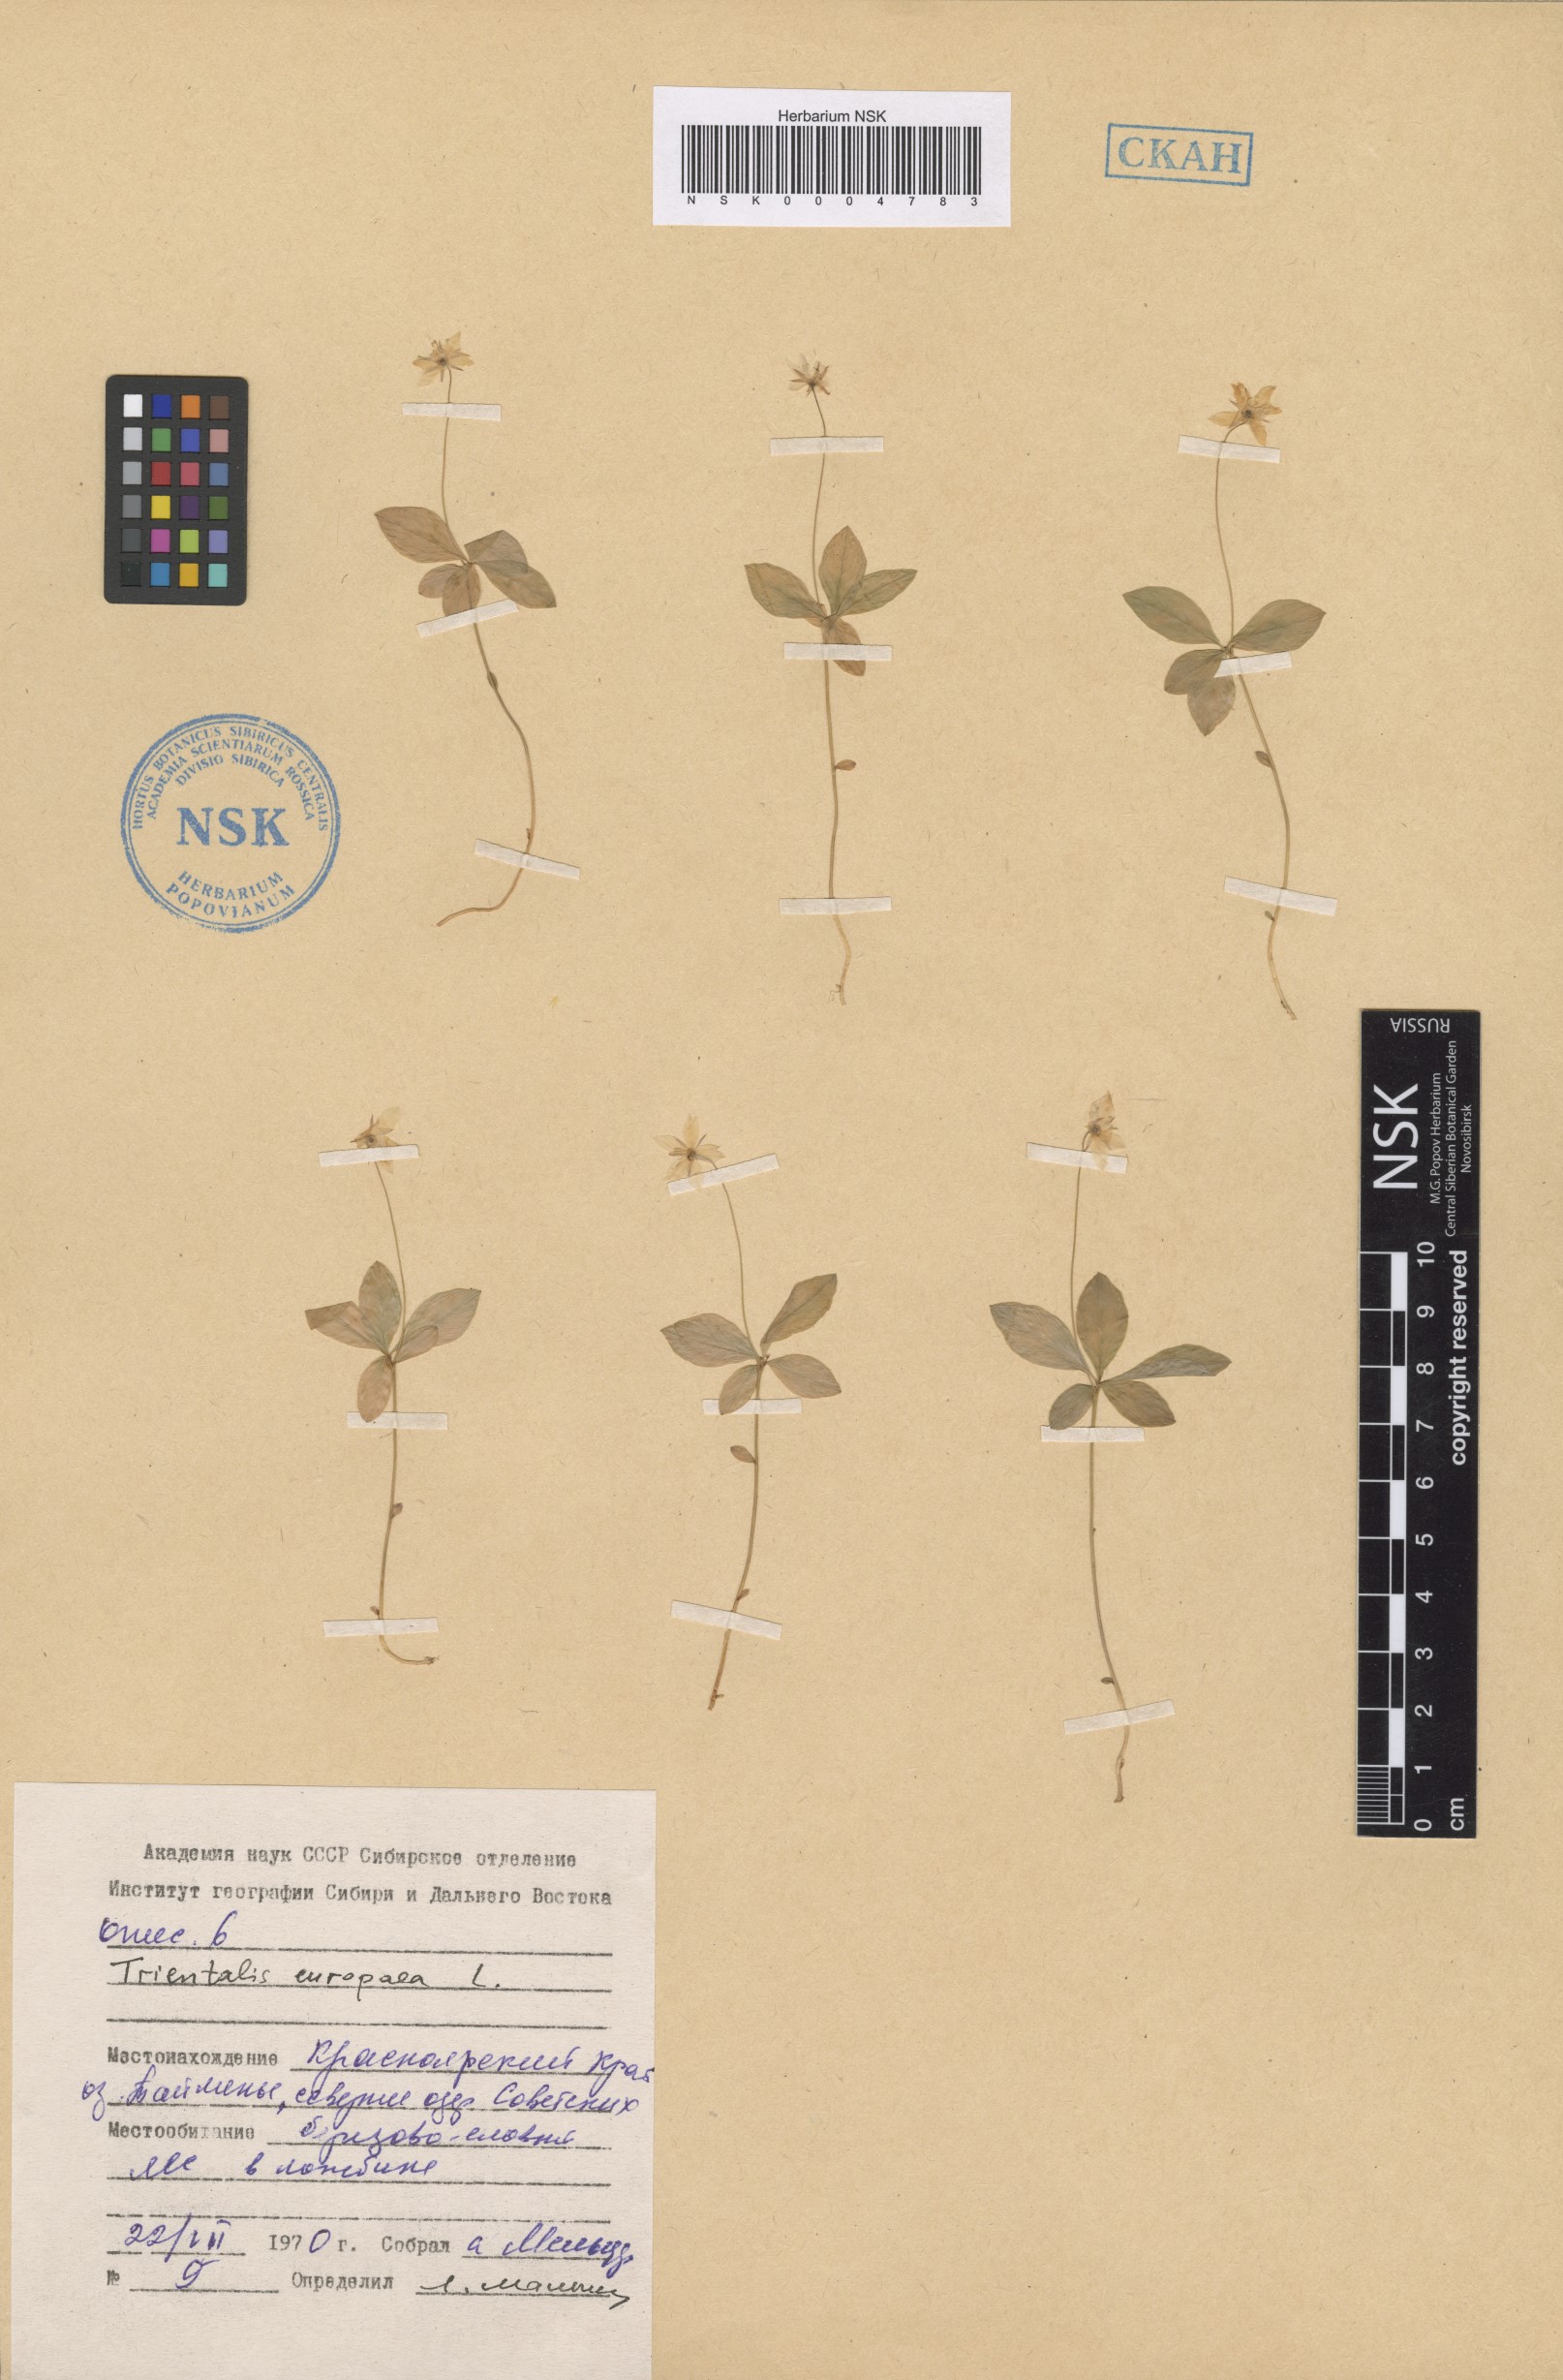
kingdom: Plantae
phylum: Tracheophyta
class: Magnoliopsida
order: Ericales
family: Primulaceae
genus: Lysimachia
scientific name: Lysimachia europaea
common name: Arctic starflower
